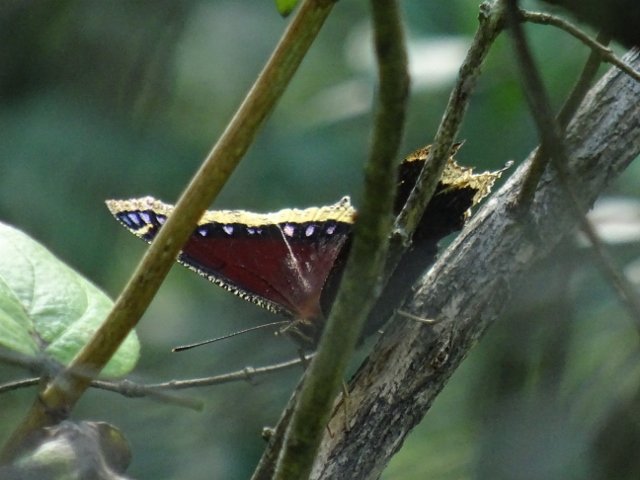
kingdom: Animalia
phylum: Arthropoda
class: Insecta
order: Lepidoptera
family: Nymphalidae
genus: Nymphalis
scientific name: Nymphalis antiopa
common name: Mourning Cloak
